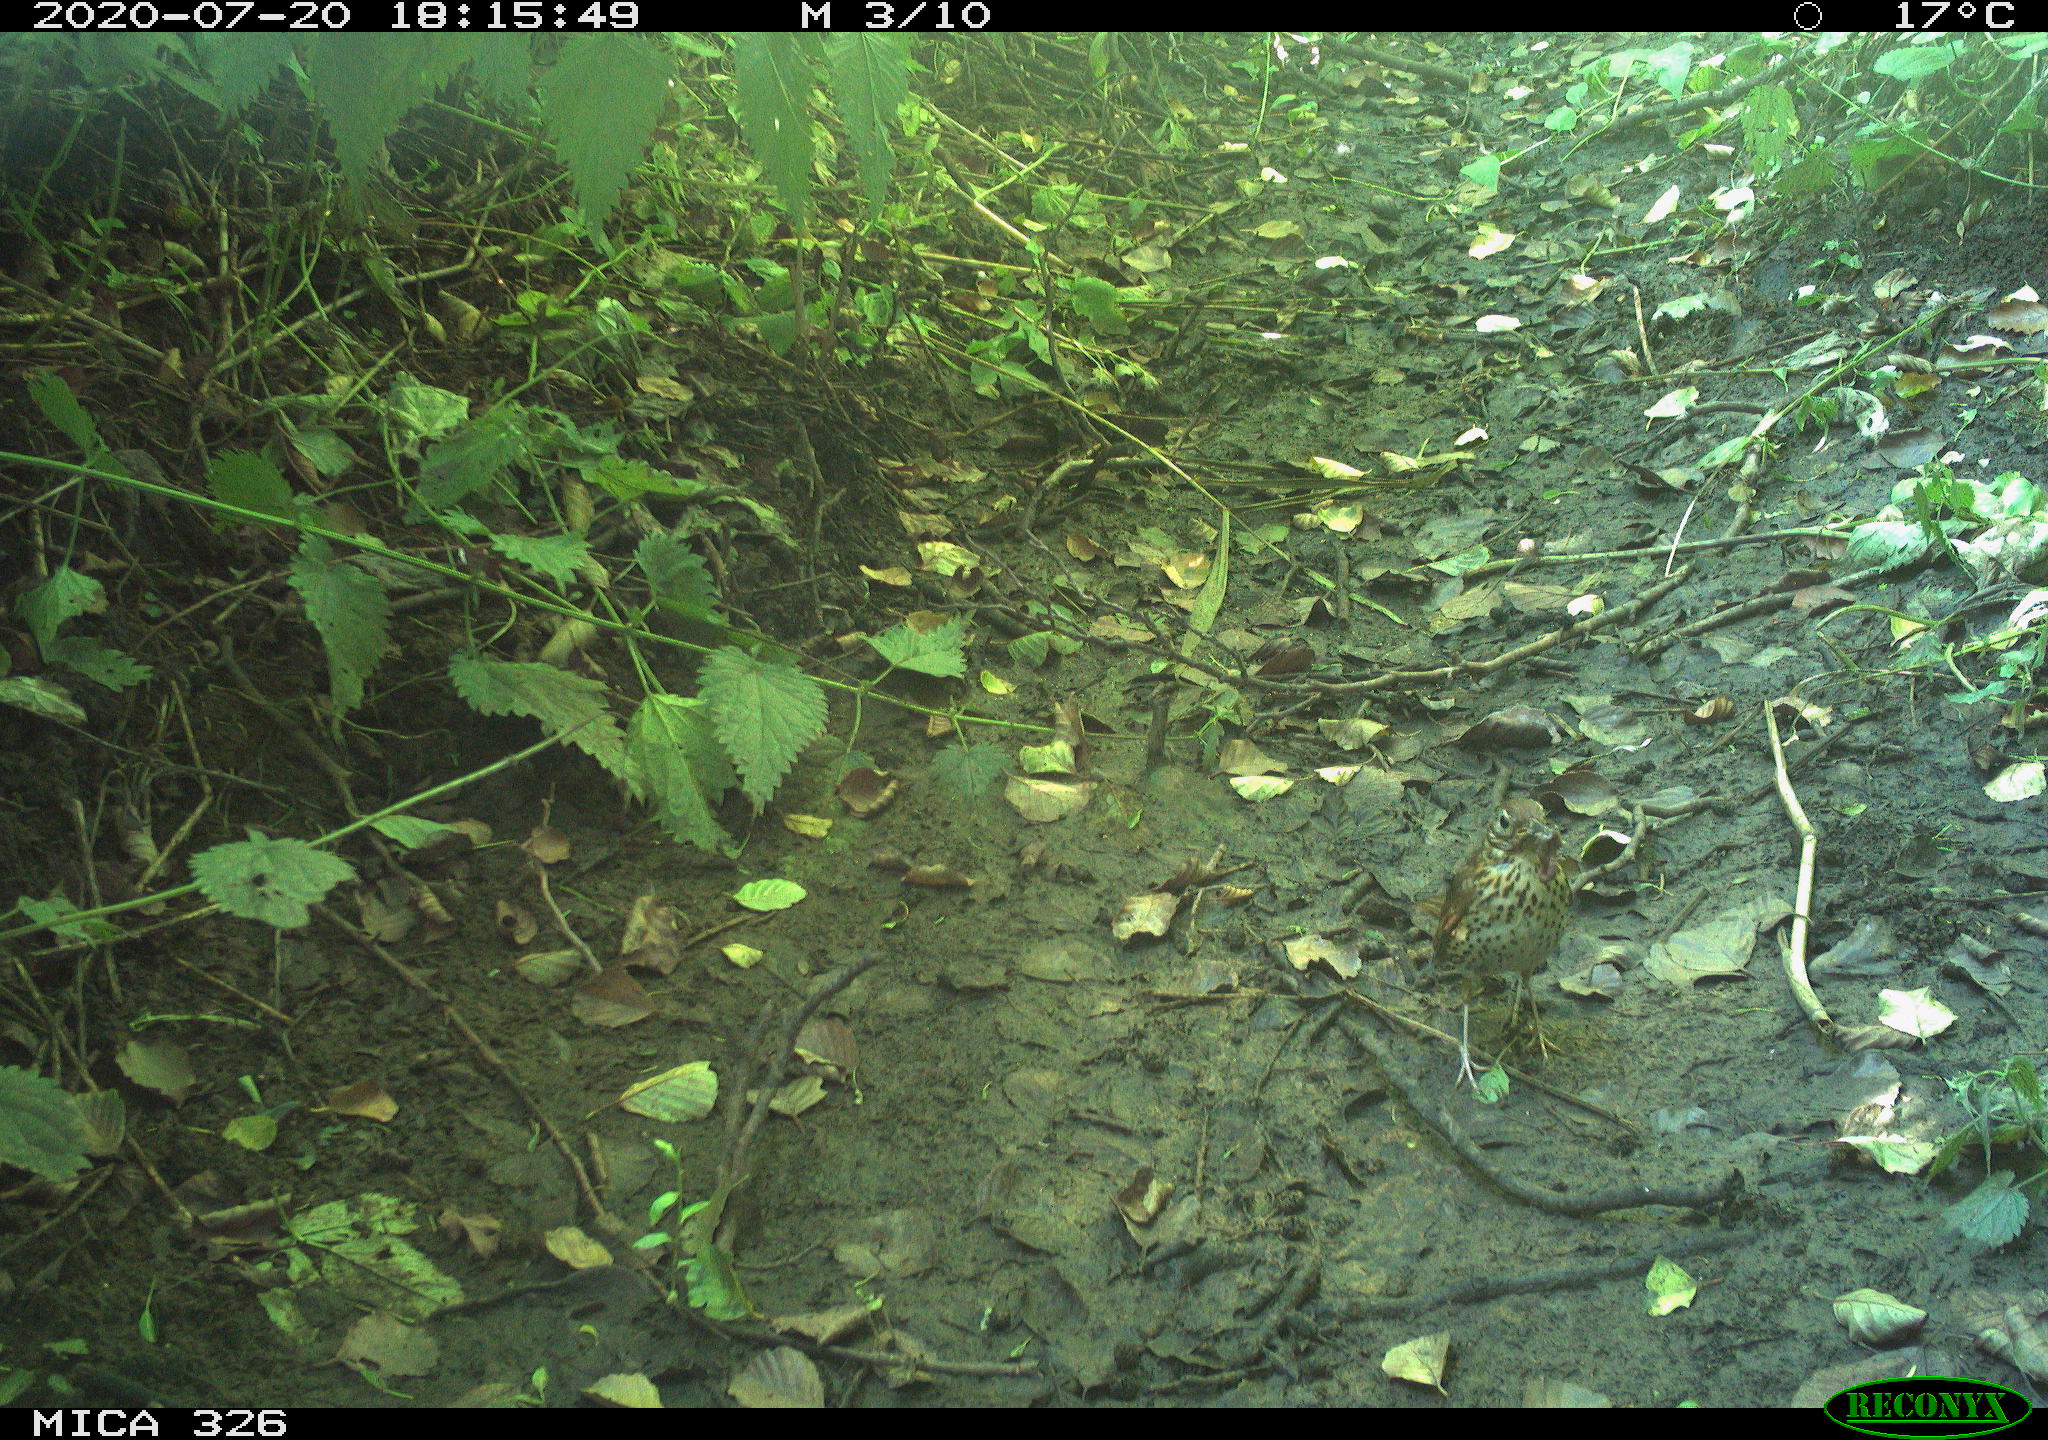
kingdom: Animalia
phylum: Chordata
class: Aves
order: Passeriformes
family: Turdidae
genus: Turdus
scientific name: Turdus philomelos
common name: Song thrush
